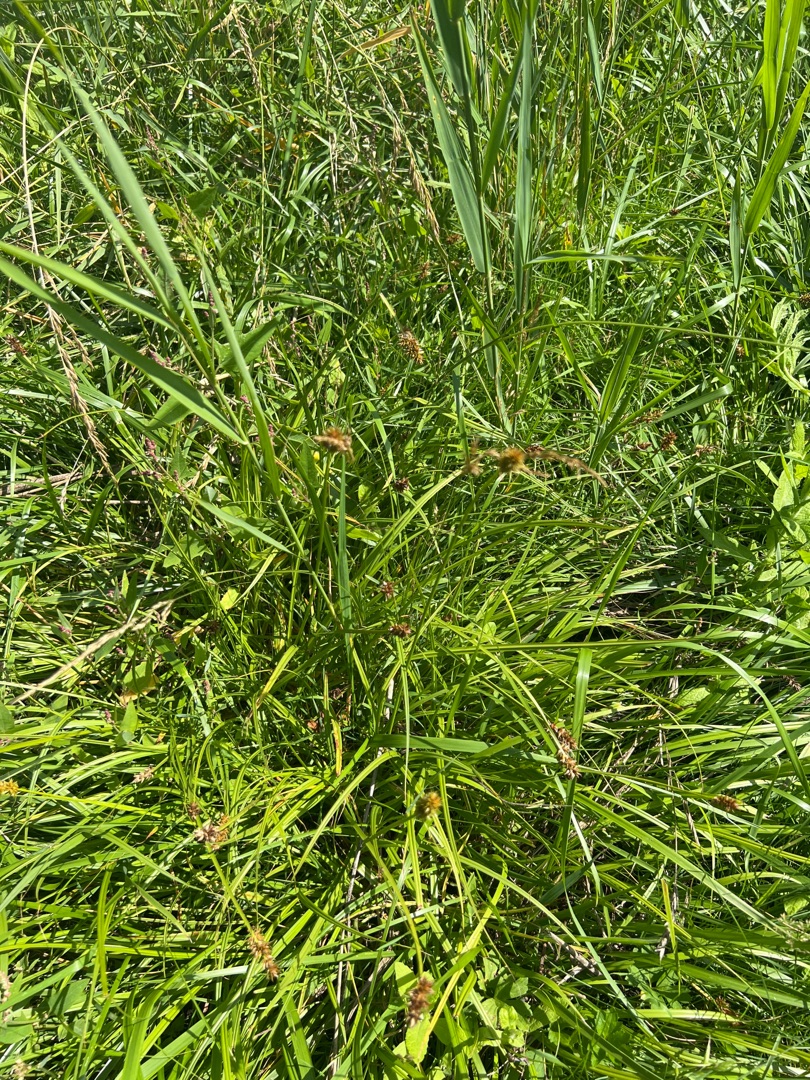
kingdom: Plantae
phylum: Tracheophyta
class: Liliopsida
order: Poales
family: Cyperaceae
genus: Carex
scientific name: Carex otrubae
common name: Sylt-star
